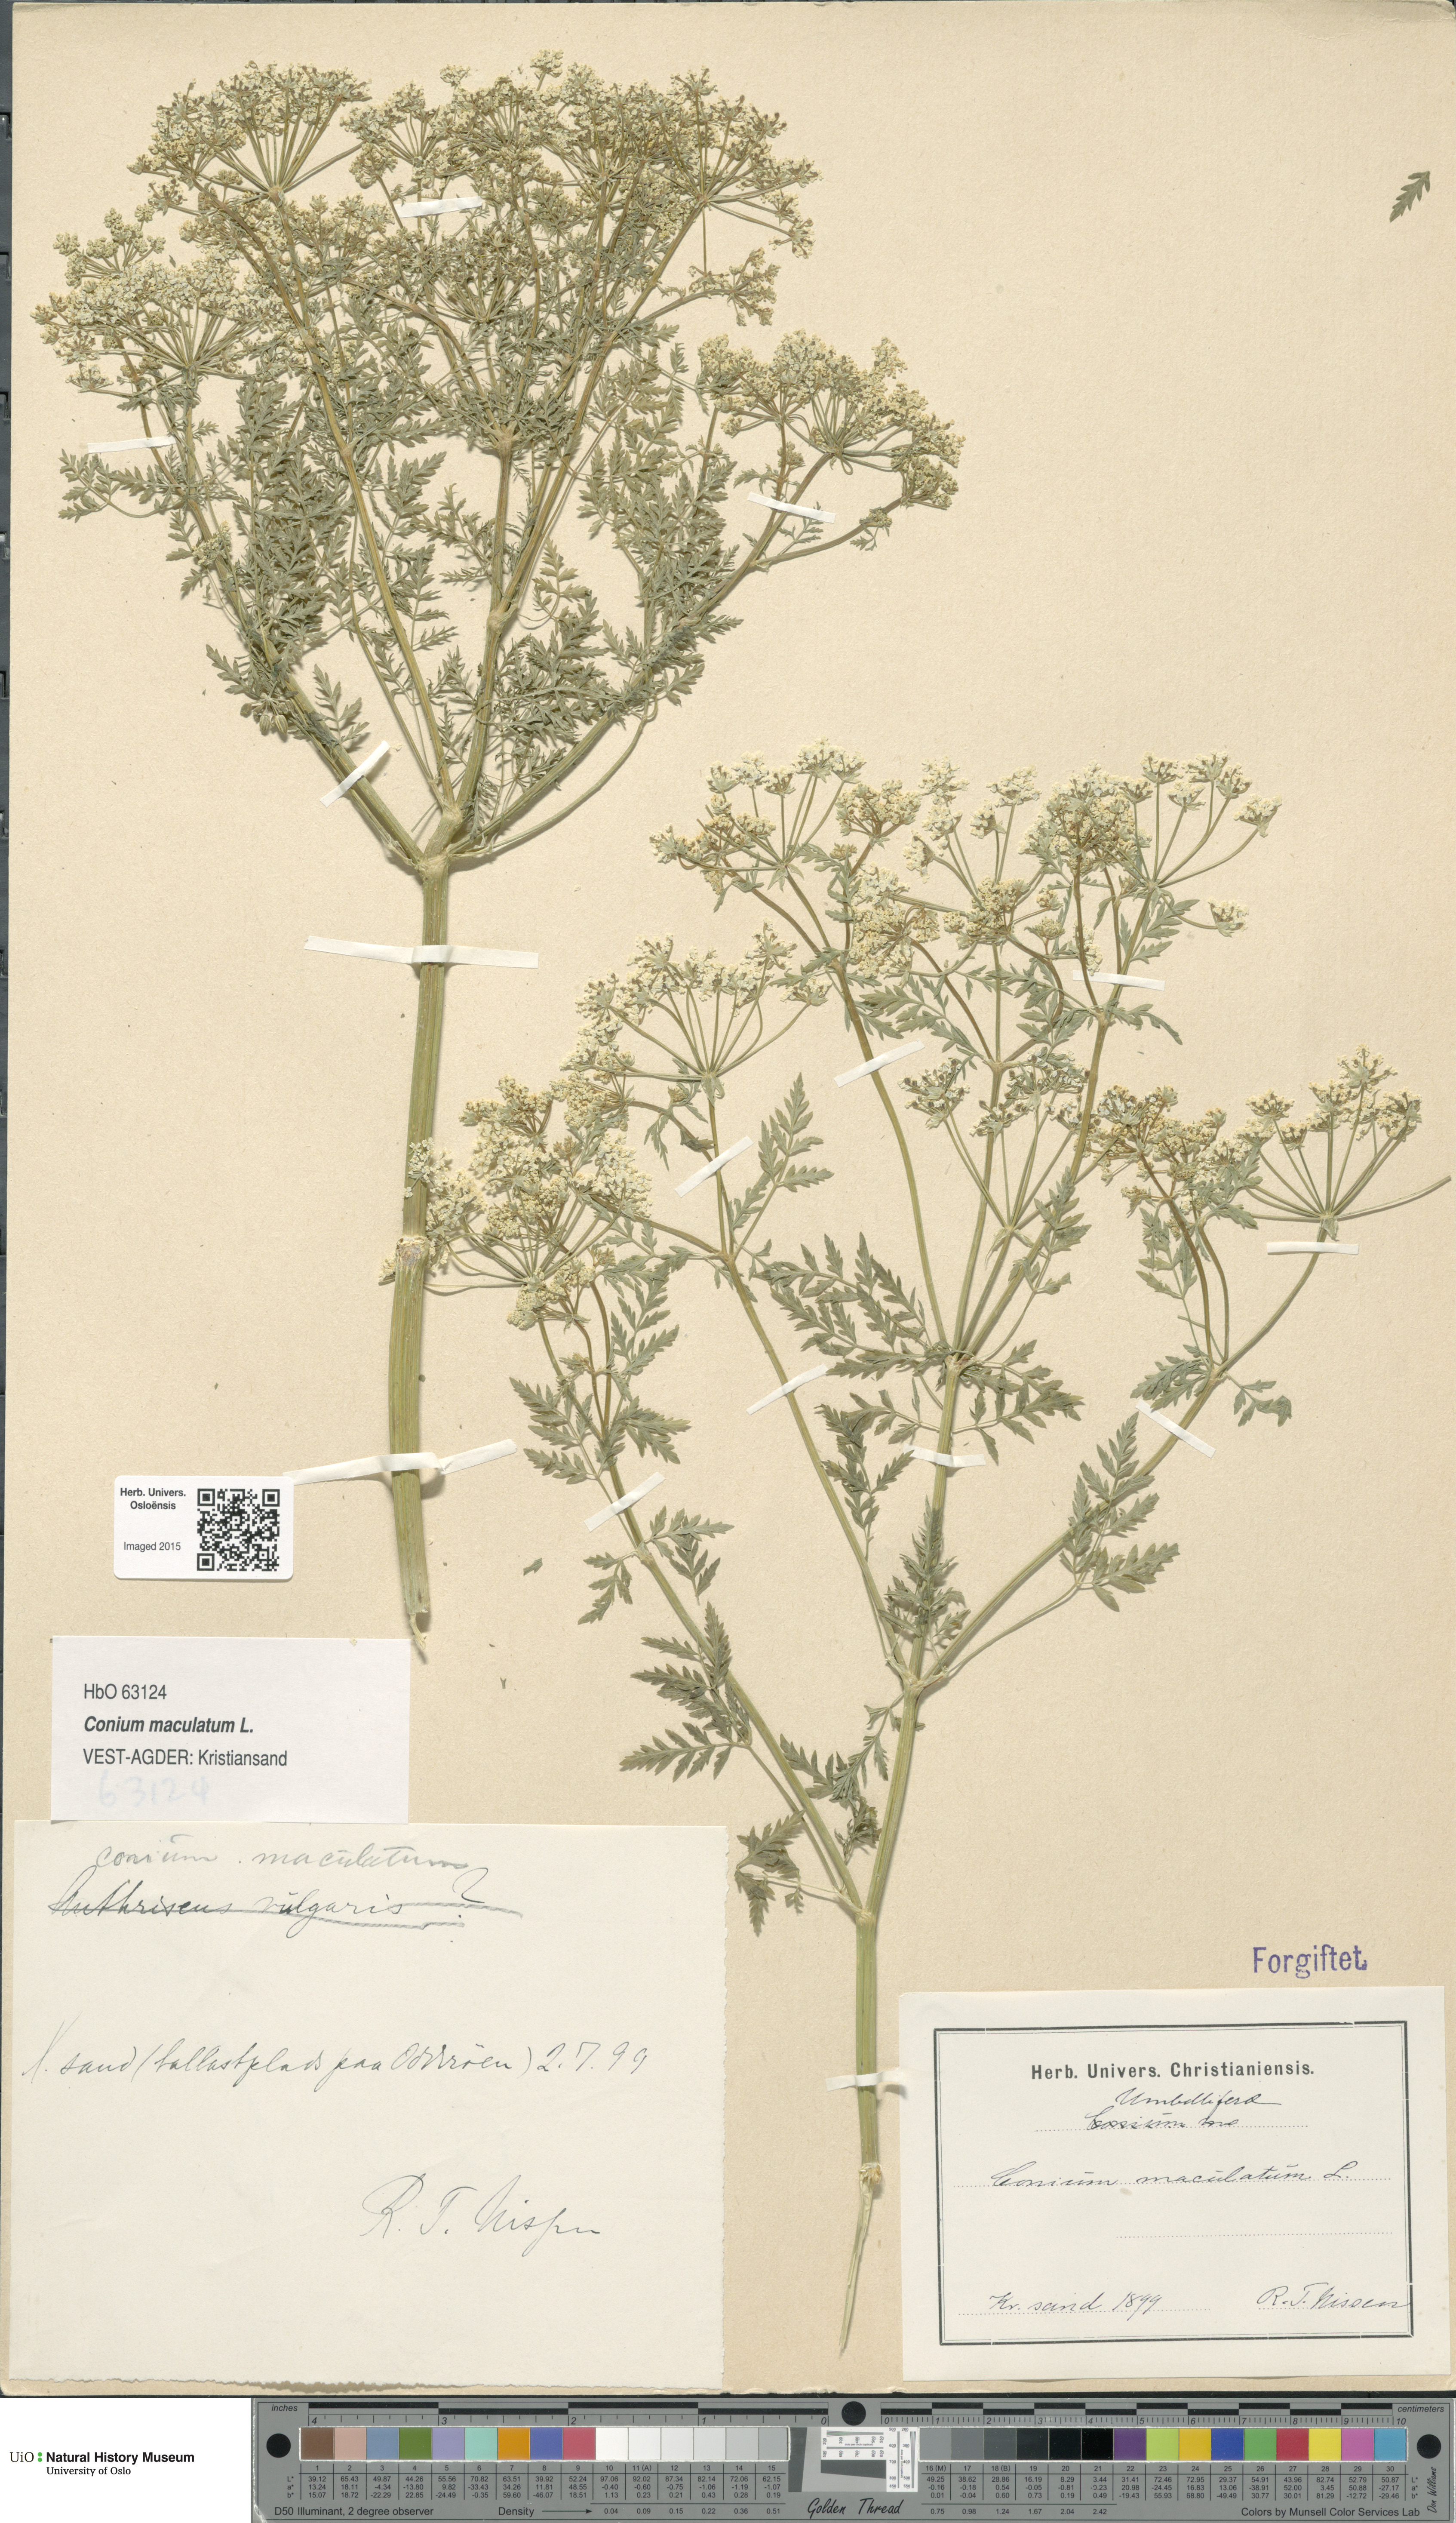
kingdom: Plantae
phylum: Tracheophyta
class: Magnoliopsida
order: Apiales
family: Apiaceae
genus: Conium
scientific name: Conium maculatum
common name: Hemlock
